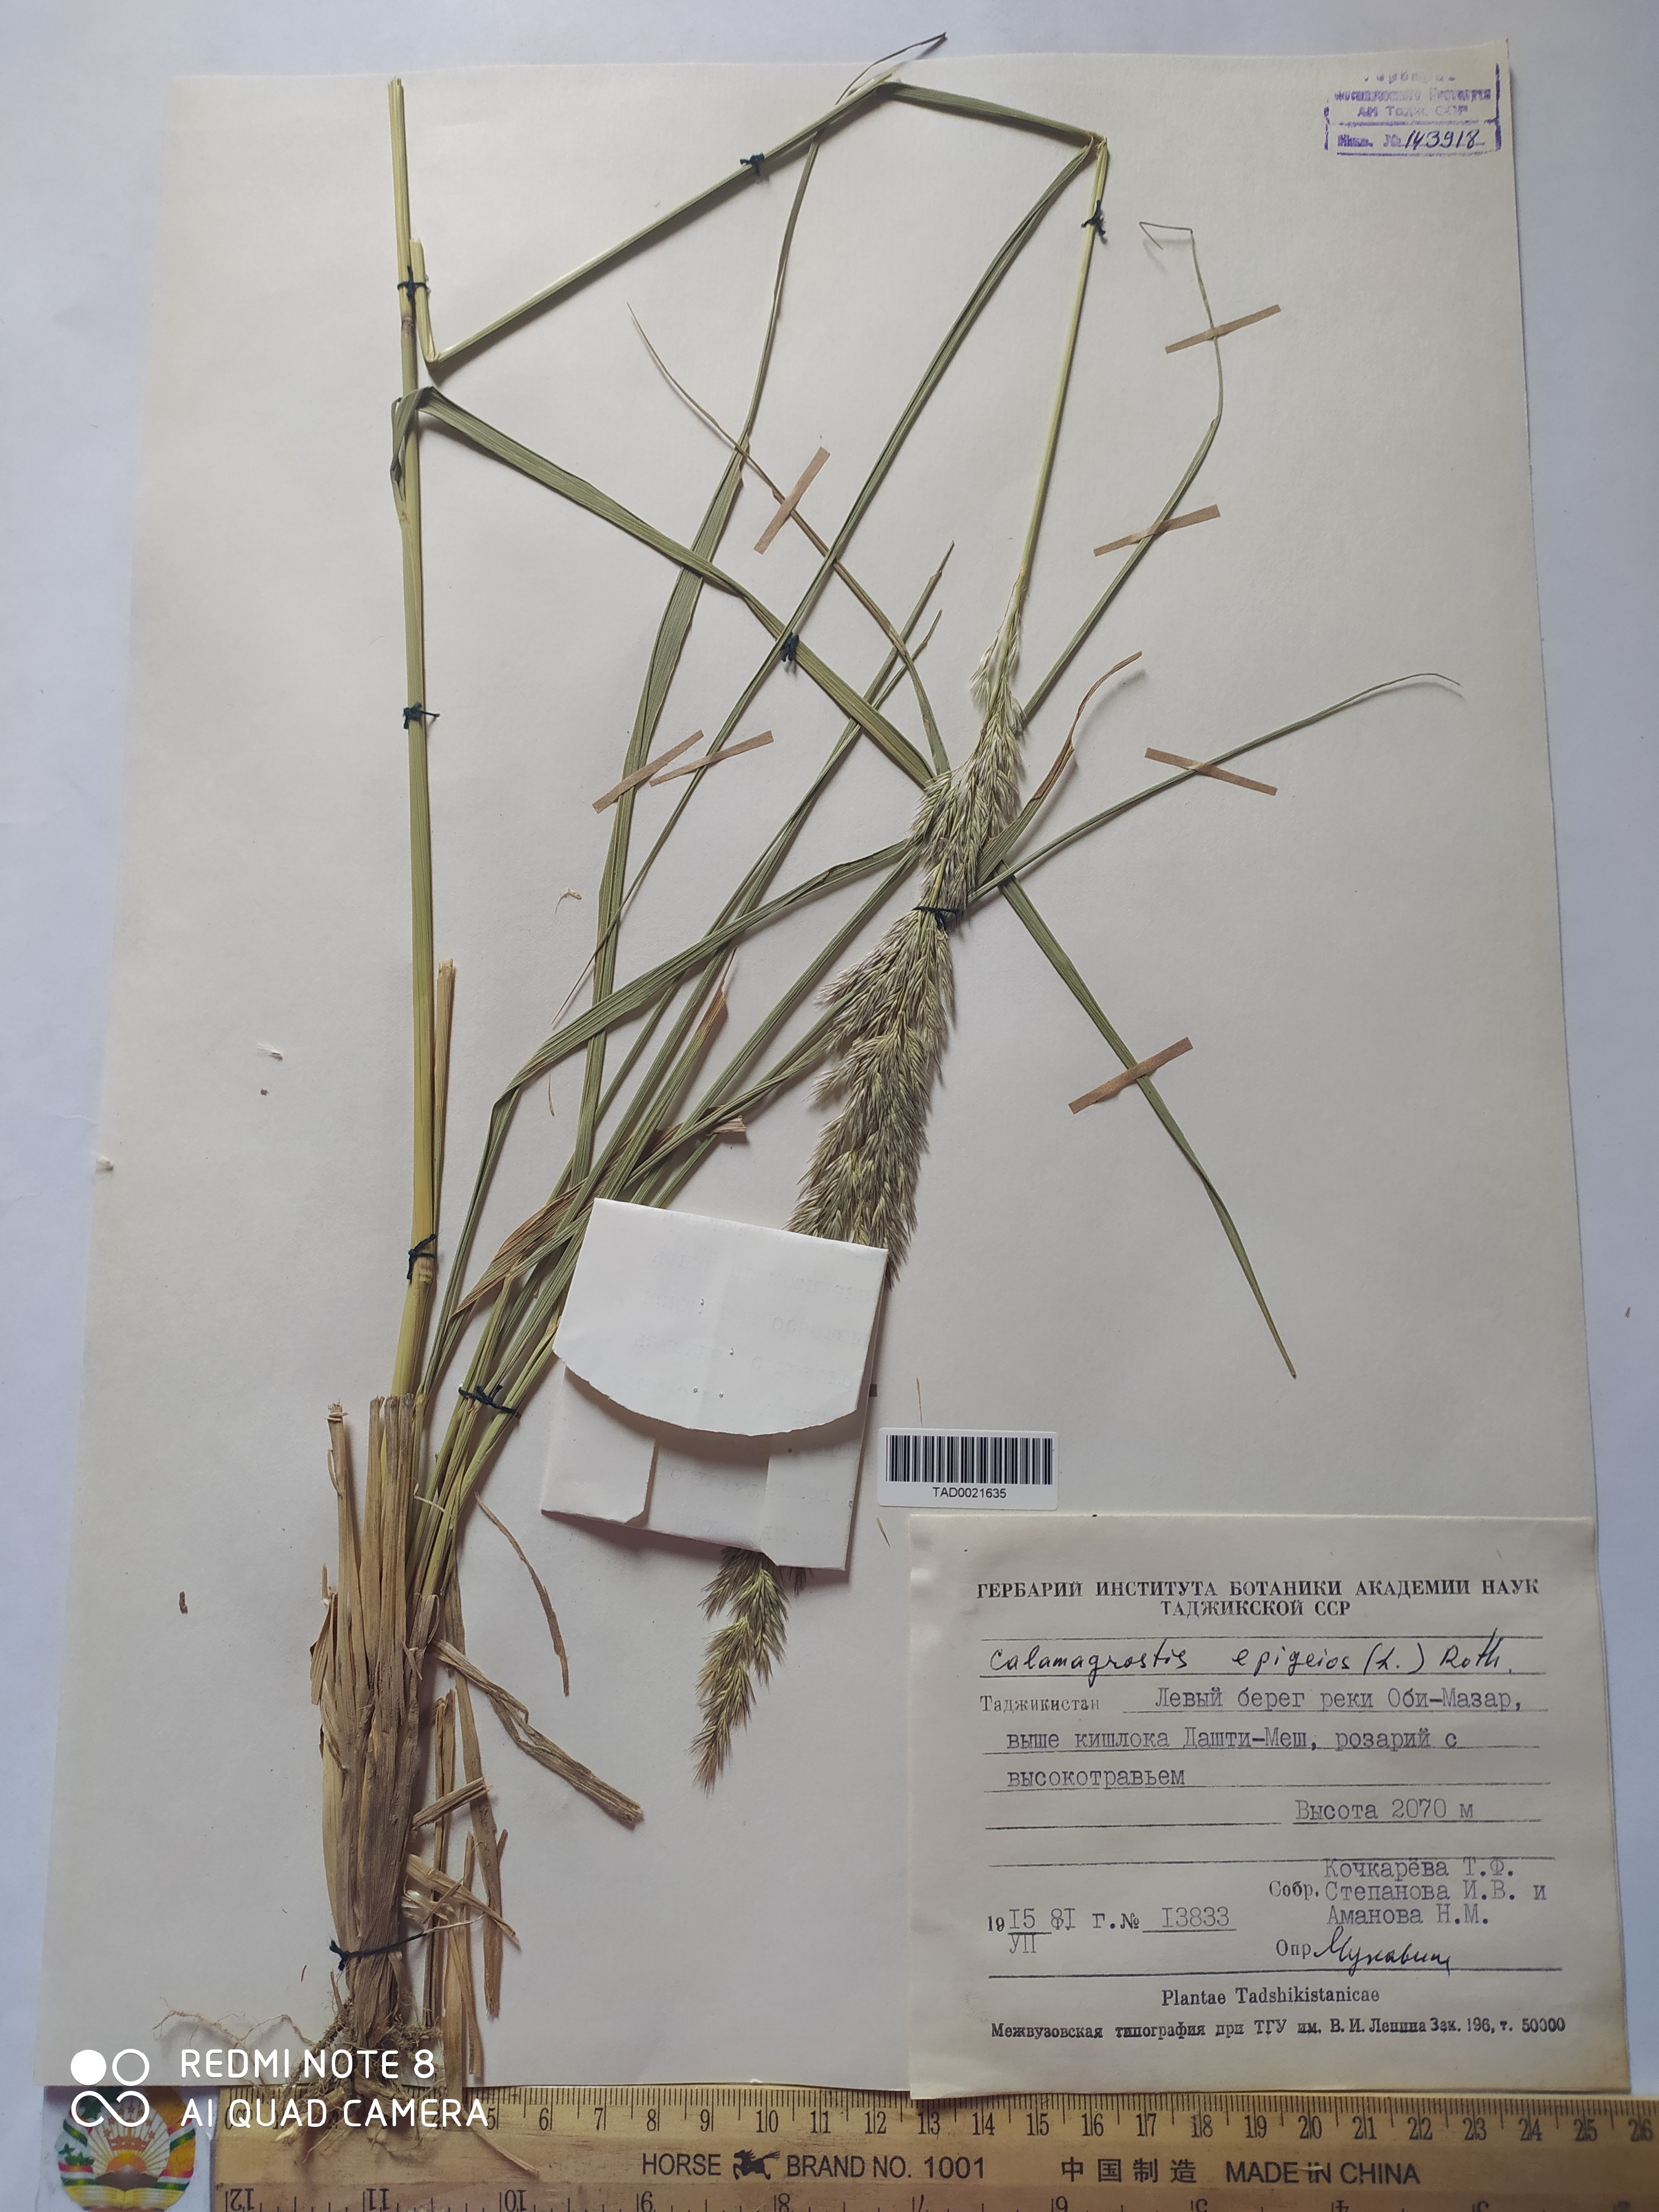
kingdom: Plantae
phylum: Tracheophyta
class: Liliopsida
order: Poales
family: Poaceae
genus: Calamagrostis
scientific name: Calamagrostis epigejos
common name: Wood small-reed
